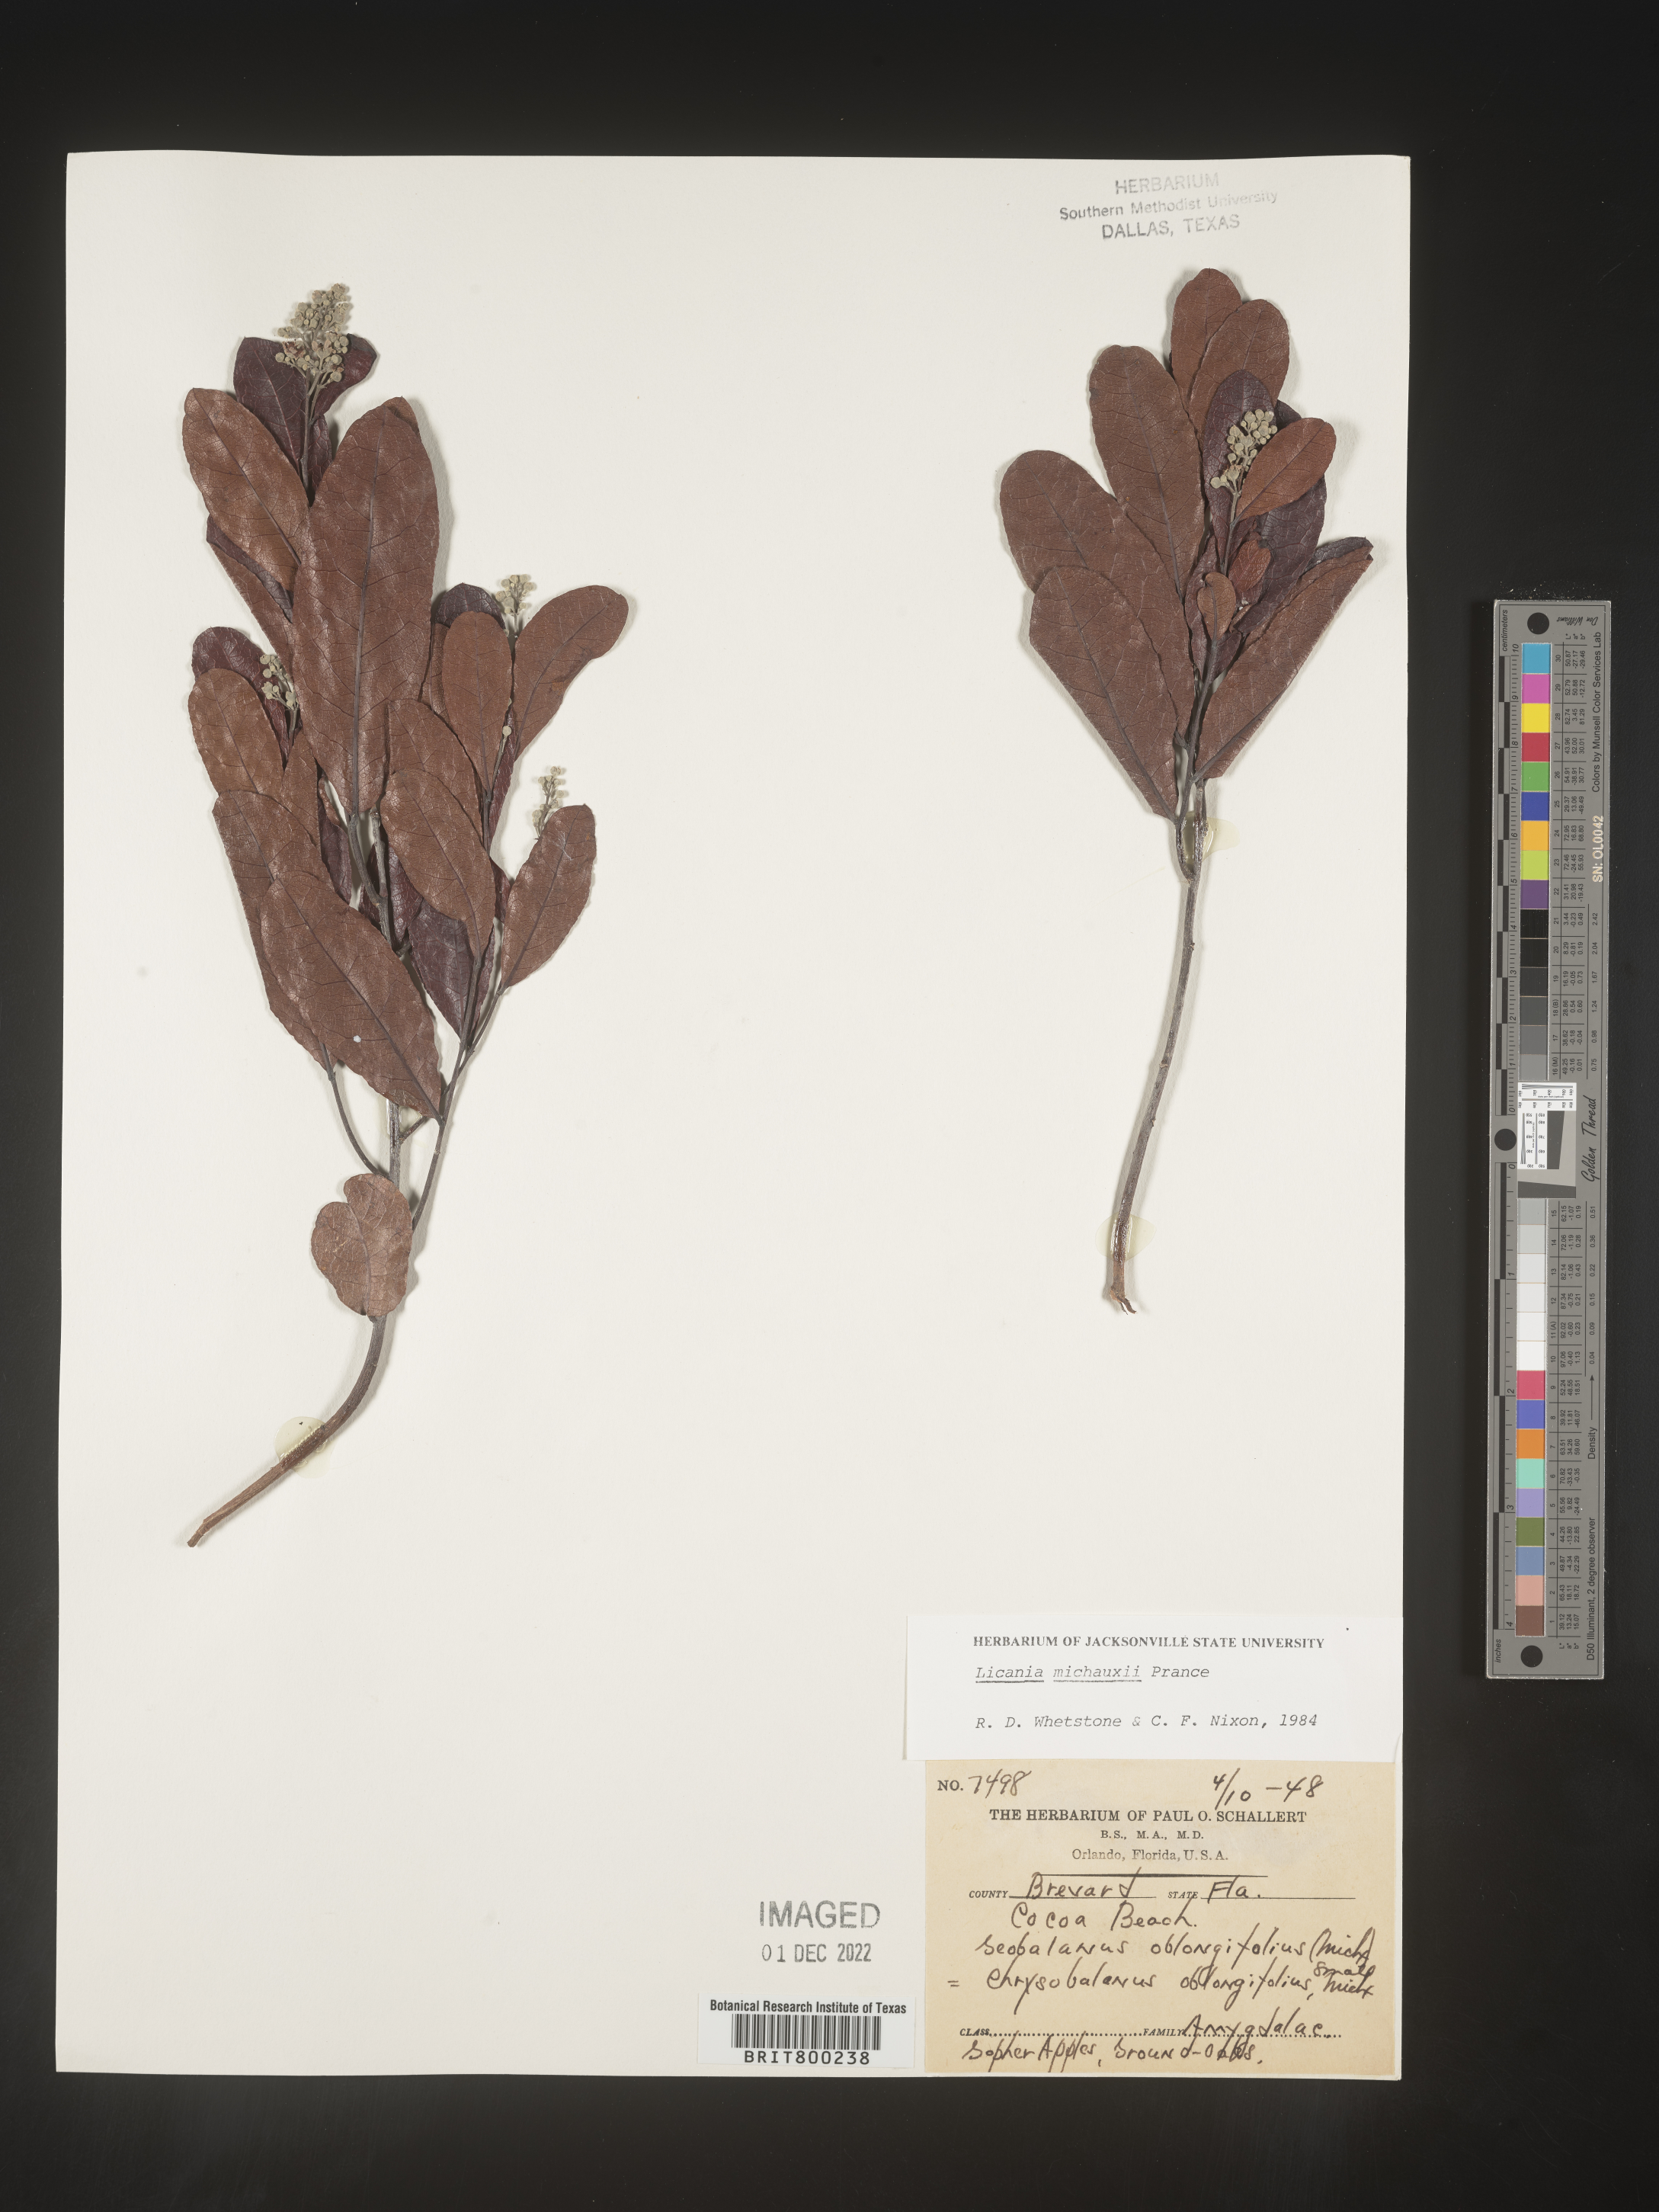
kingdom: Plantae
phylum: Tracheophyta
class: Magnoliopsida
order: Malpighiales
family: Chrysobalanaceae
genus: Geobalanus
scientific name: Geobalanus oblongifolius
